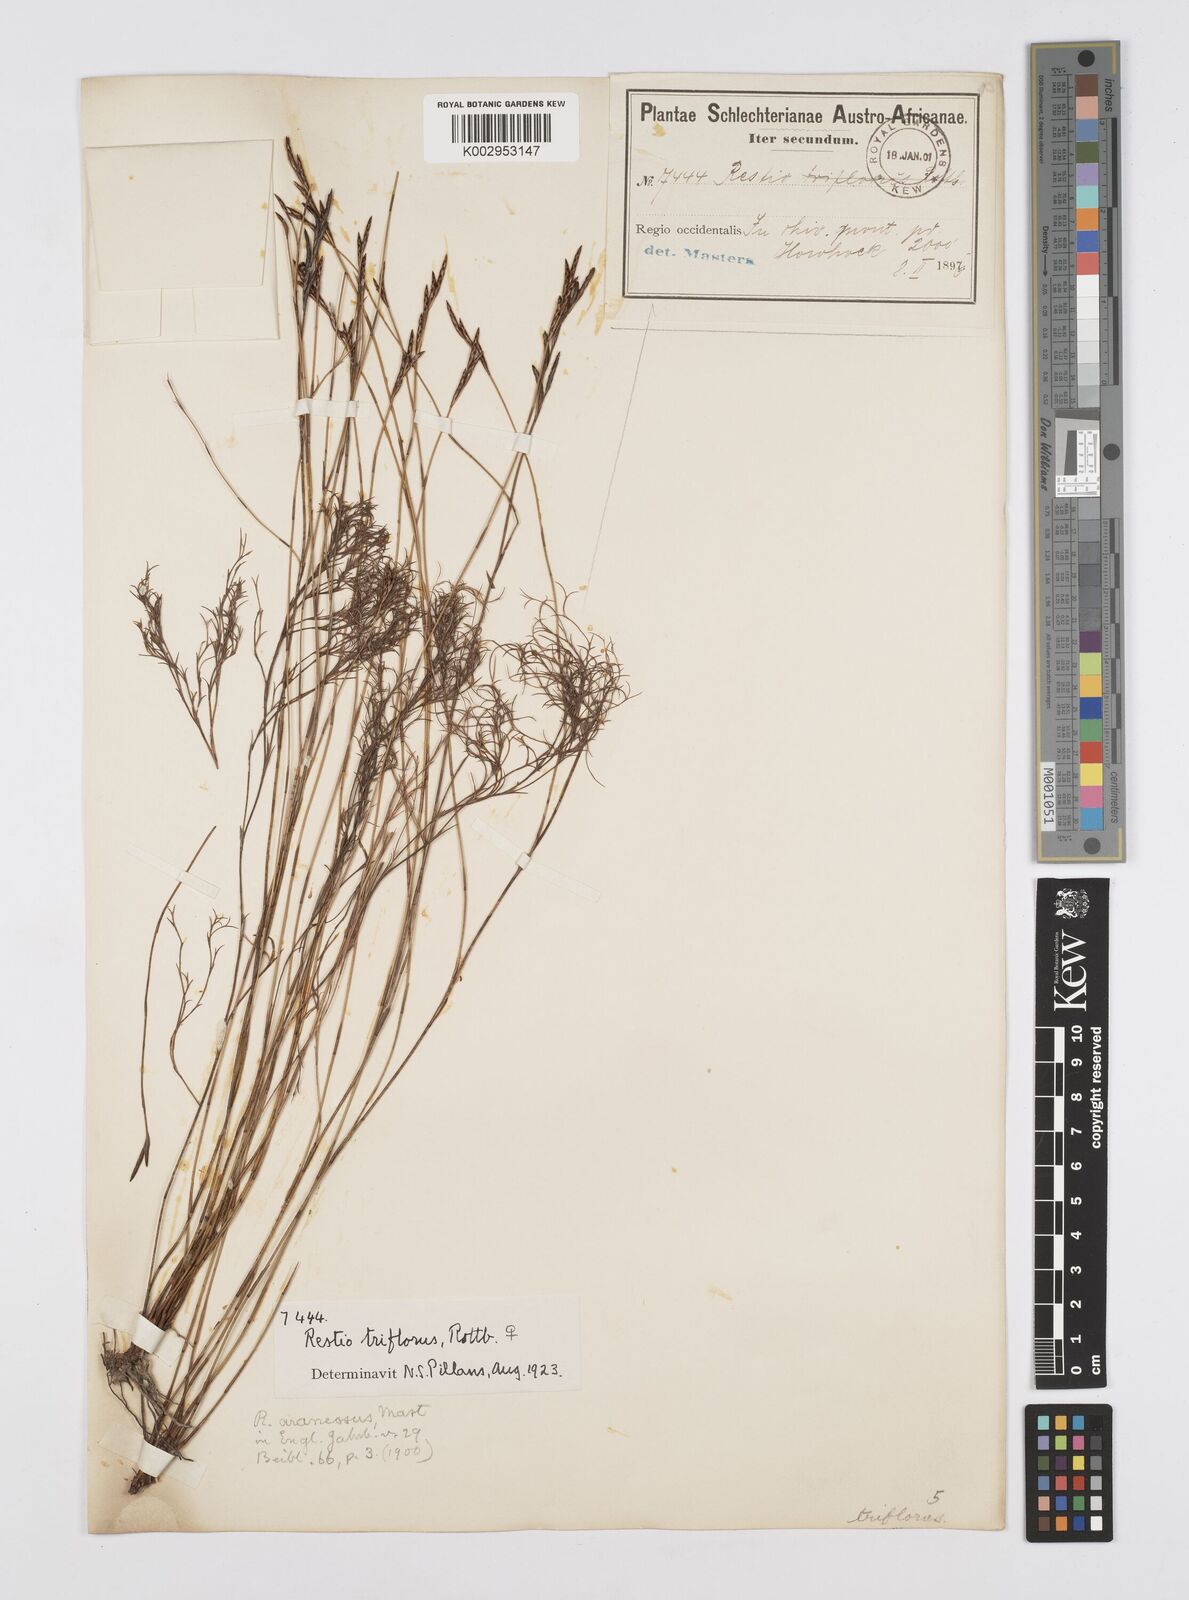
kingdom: Plantae
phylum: Tracheophyta
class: Liliopsida
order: Poales
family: Restionaceae
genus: Restio
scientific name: Restio triflorus
